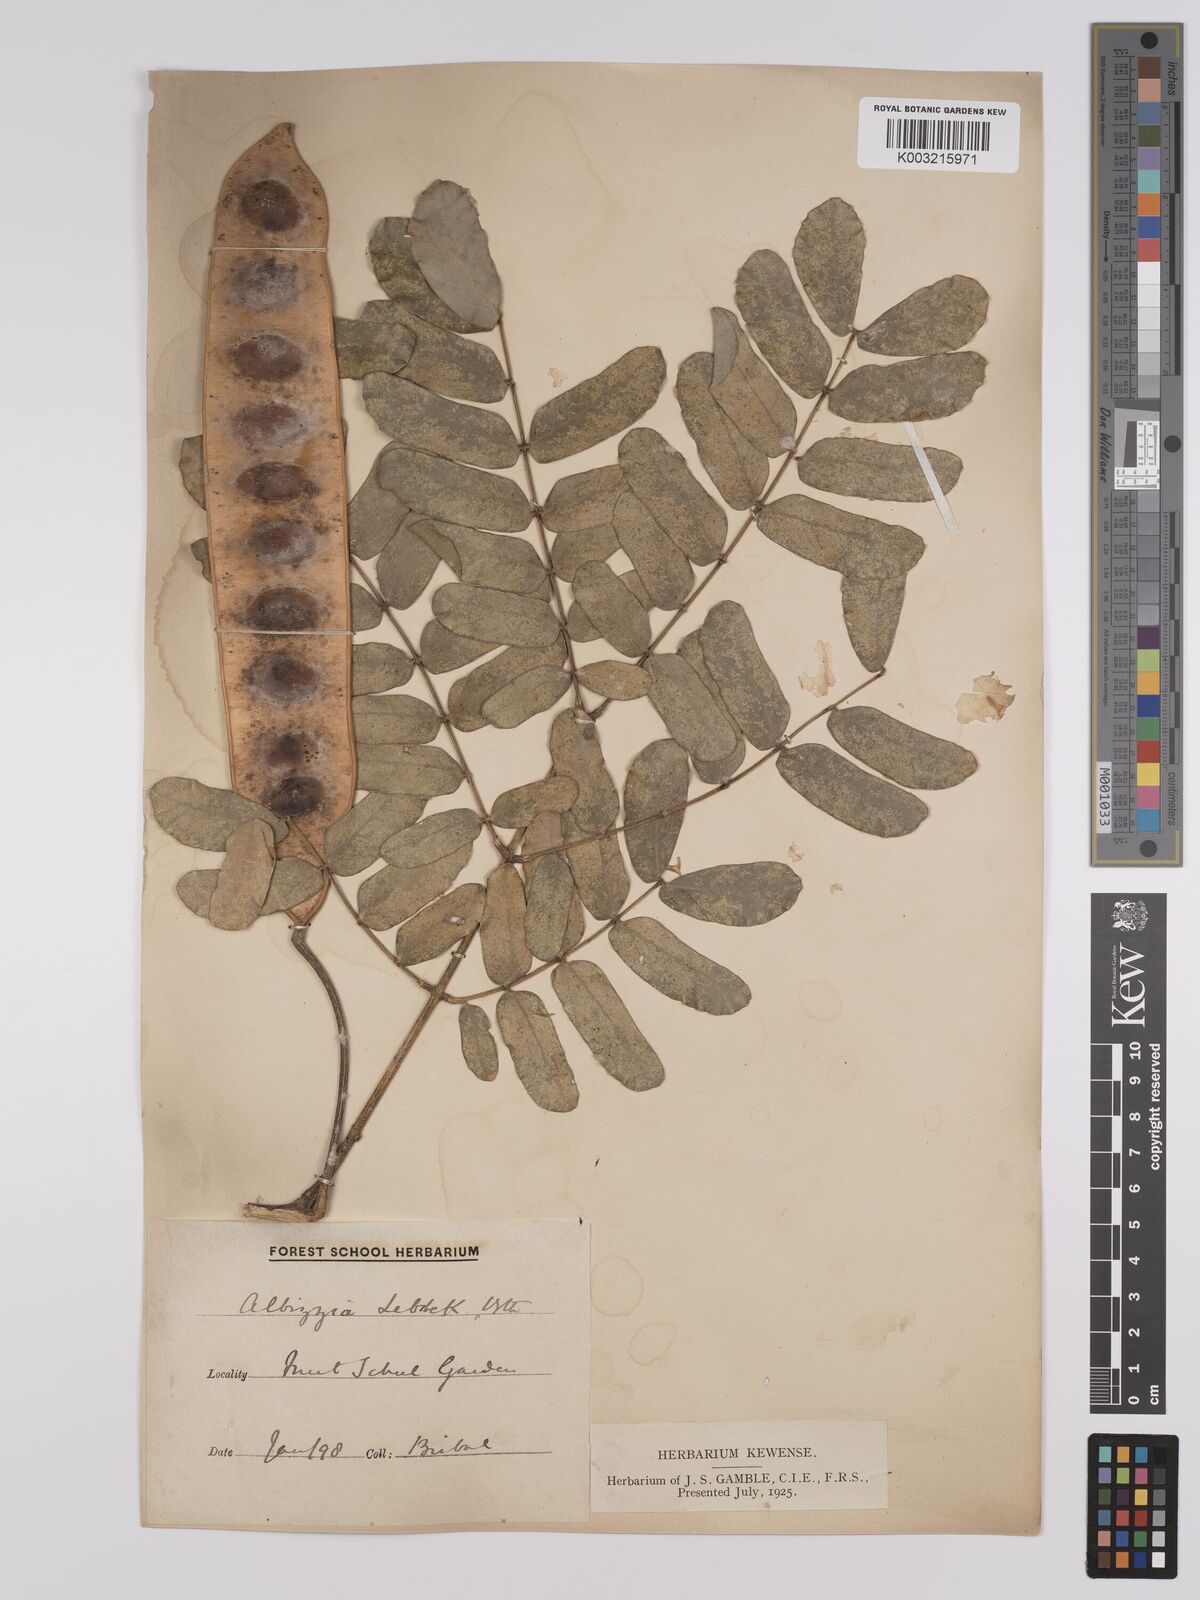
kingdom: Plantae
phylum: Tracheophyta
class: Magnoliopsida
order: Fabales
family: Fabaceae
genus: Albizia
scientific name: Albizia lebbeck
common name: Woman's tongue
